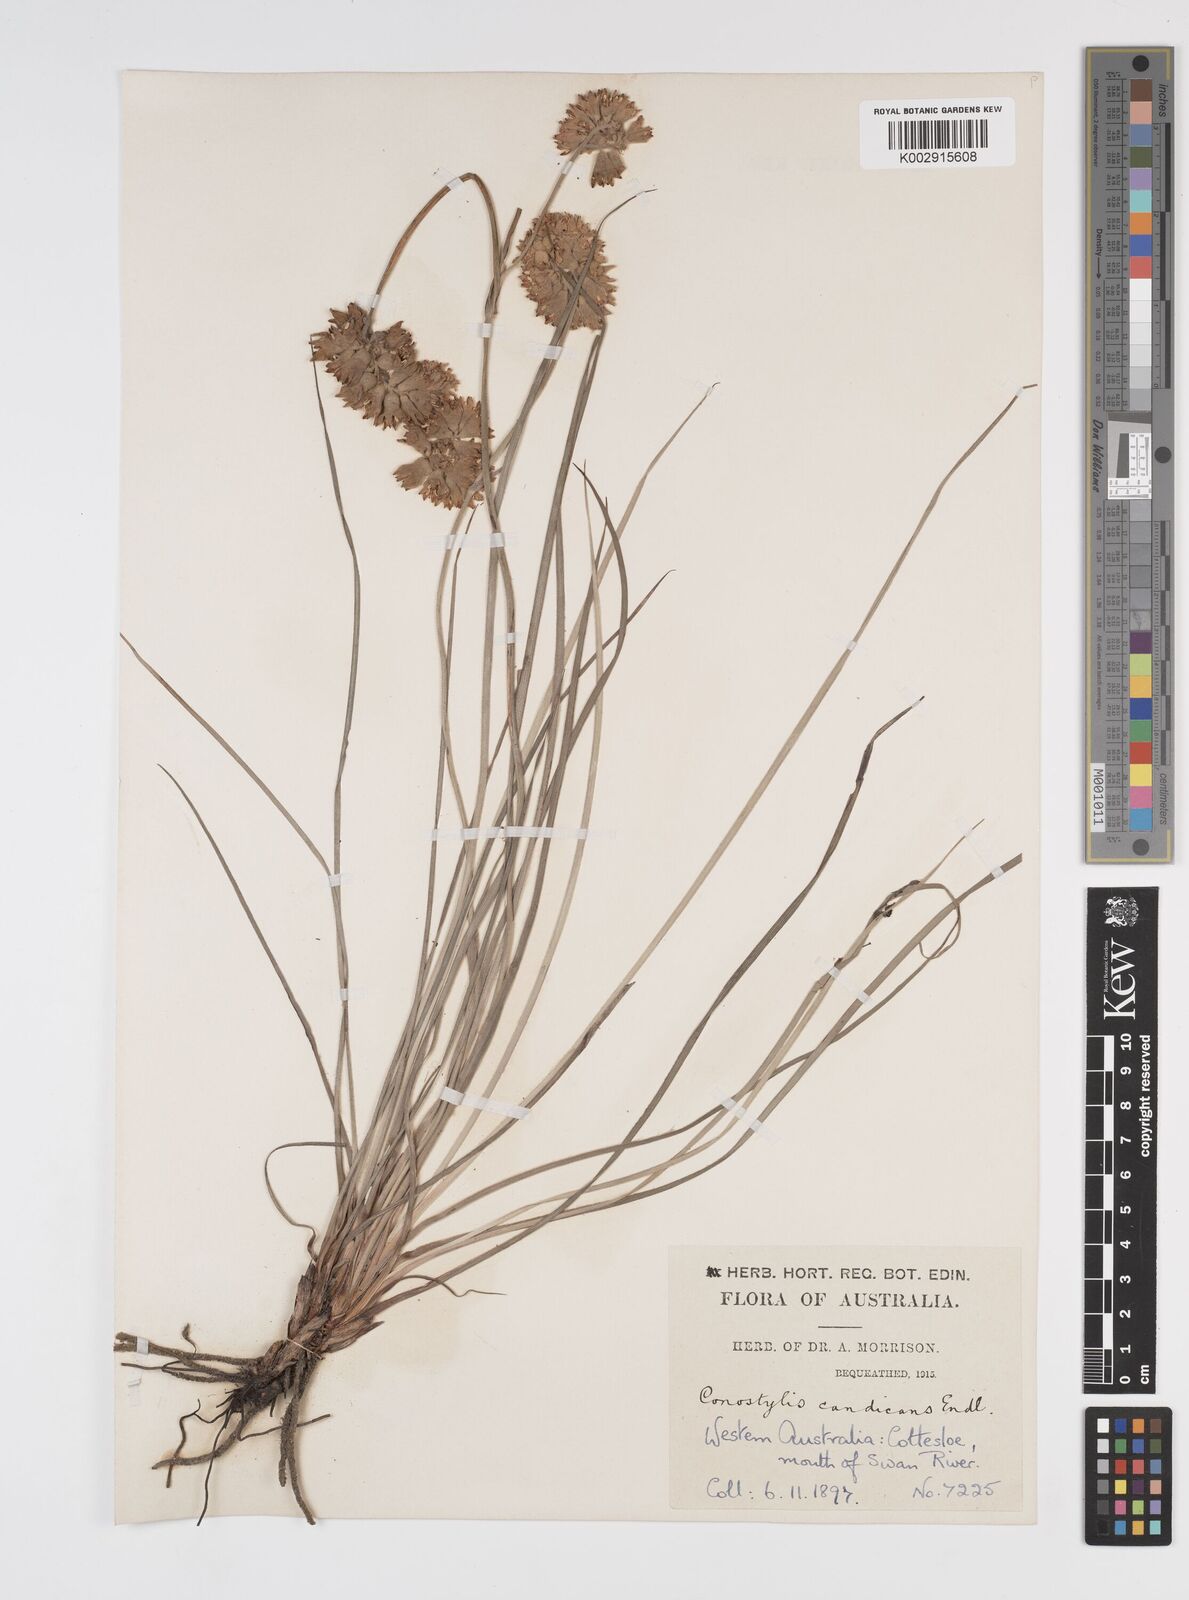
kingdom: Plantae
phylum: Tracheophyta
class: Liliopsida
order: Commelinales
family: Haemodoraceae
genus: Conostylis
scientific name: Conostylis candicans
